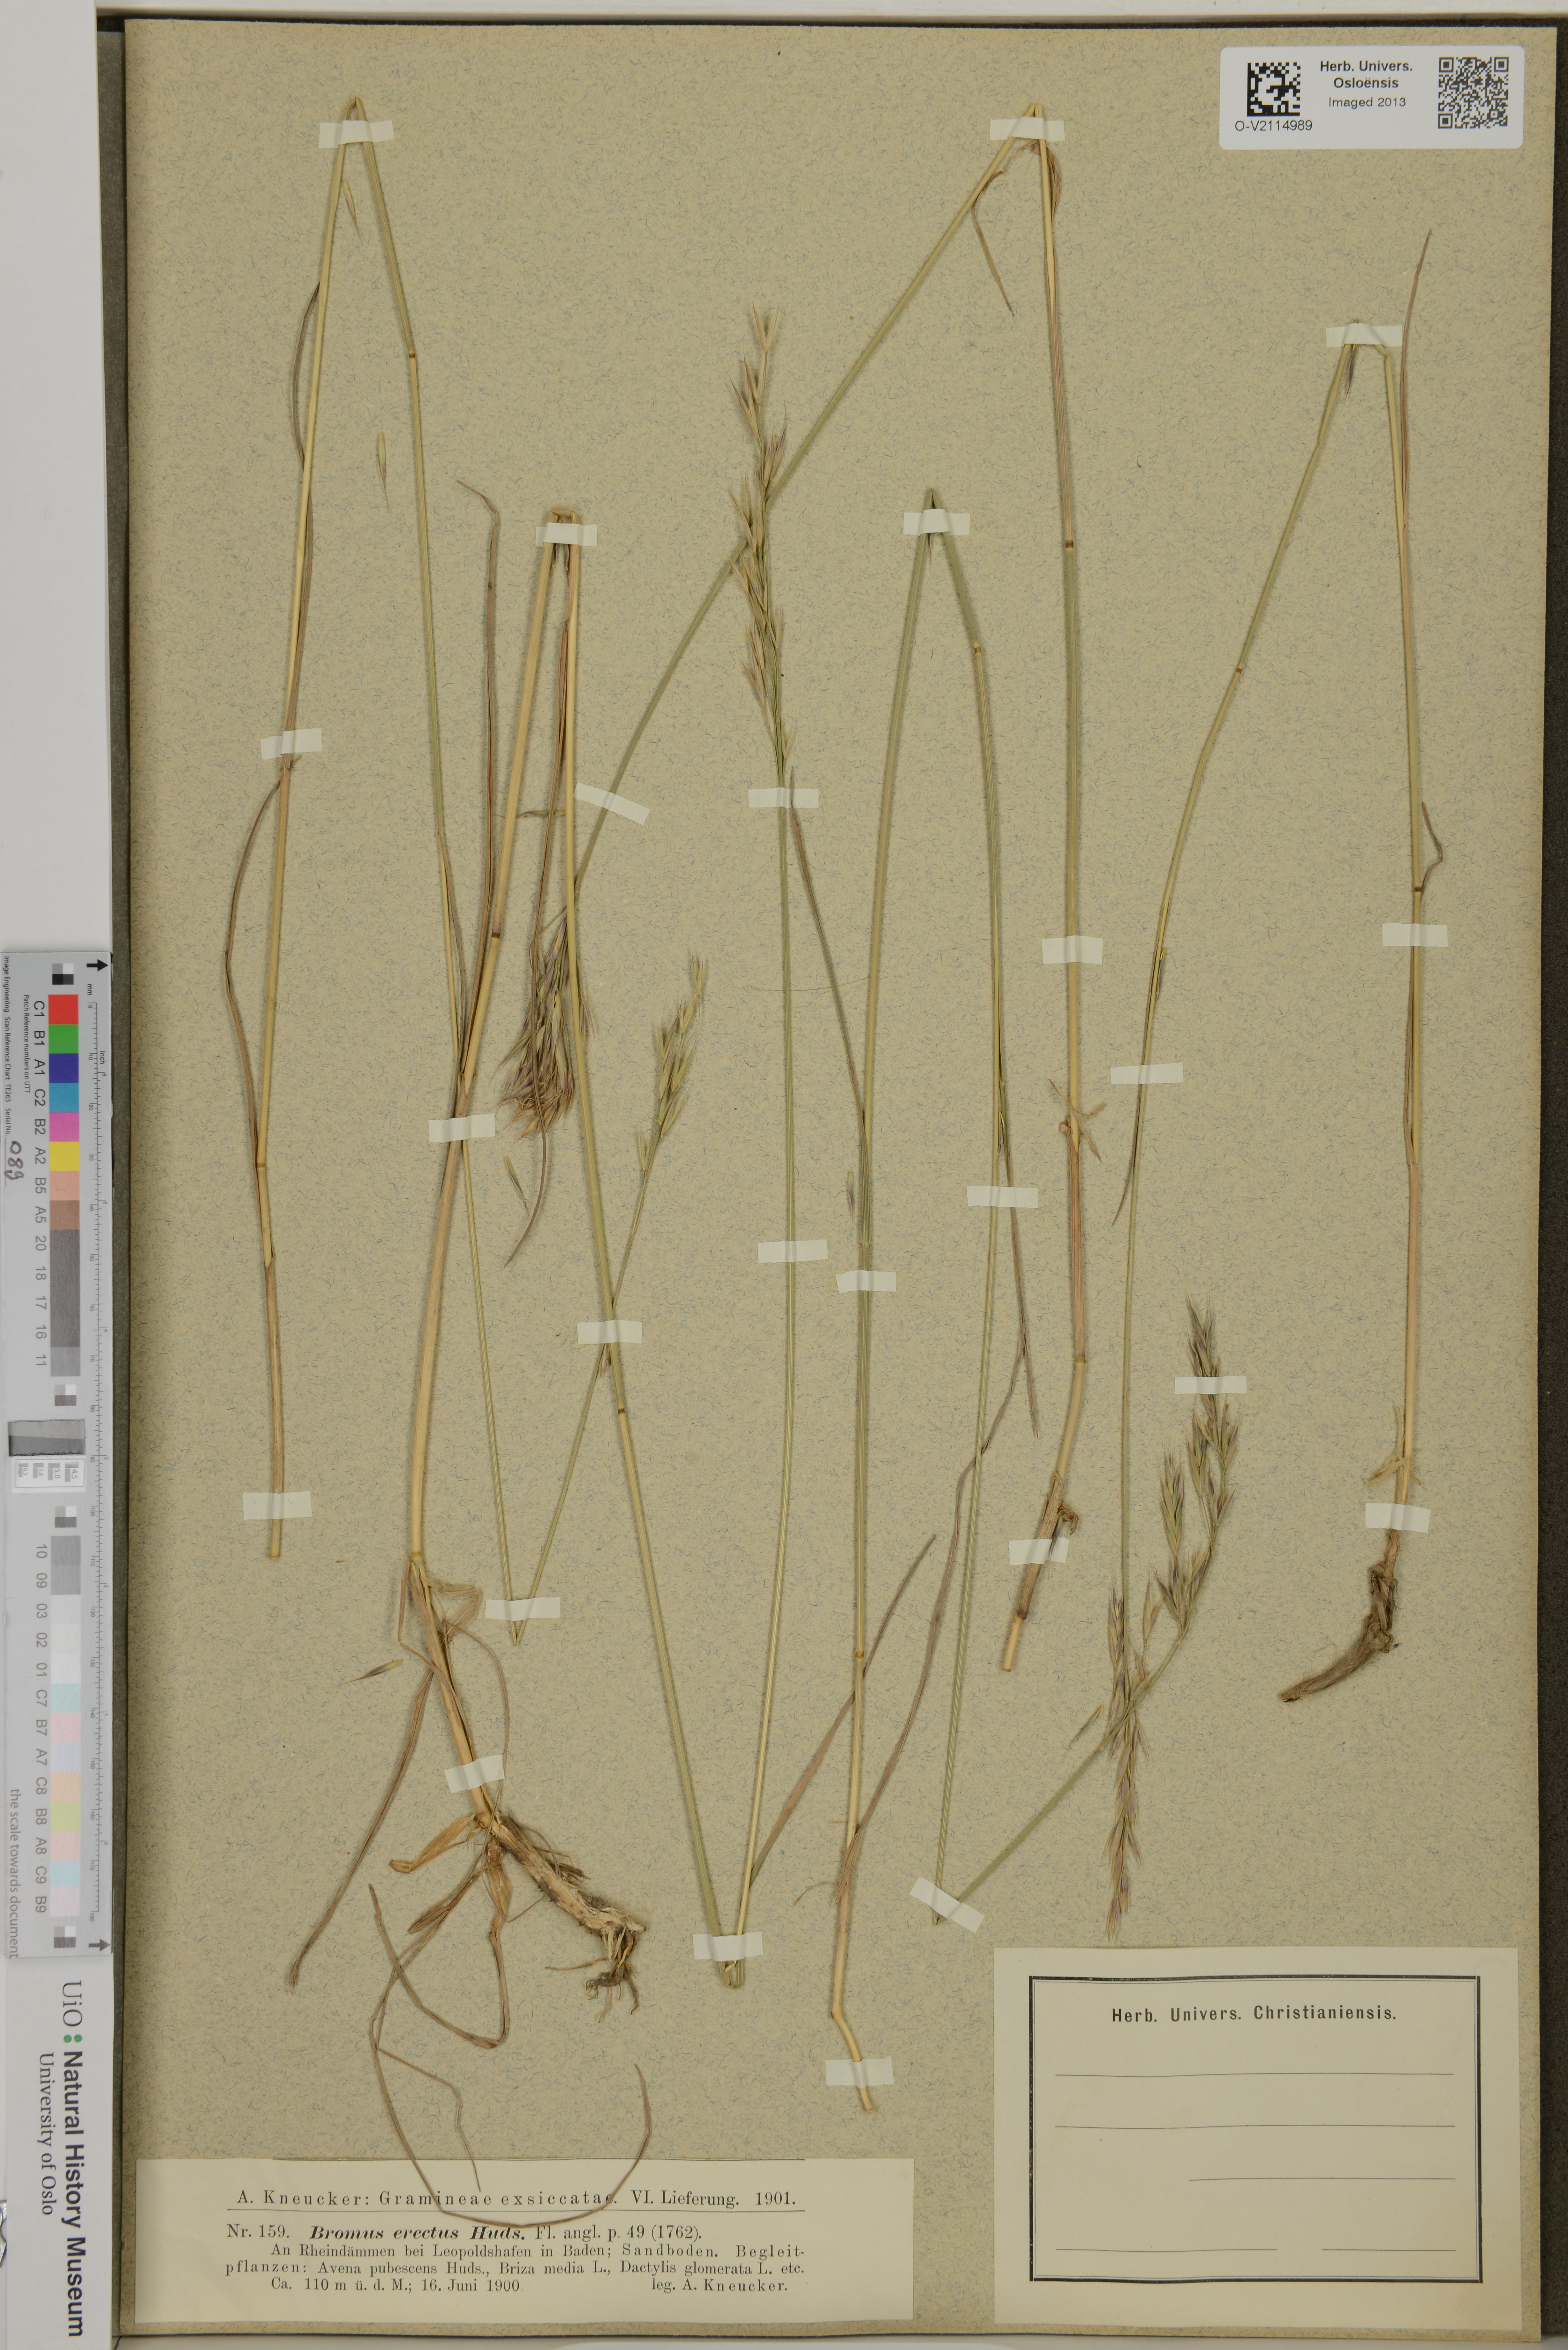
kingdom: Plantae
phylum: Tracheophyta
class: Liliopsida
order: Poales
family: Poaceae
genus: Bromus
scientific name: Bromus erectus
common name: Erect brome
